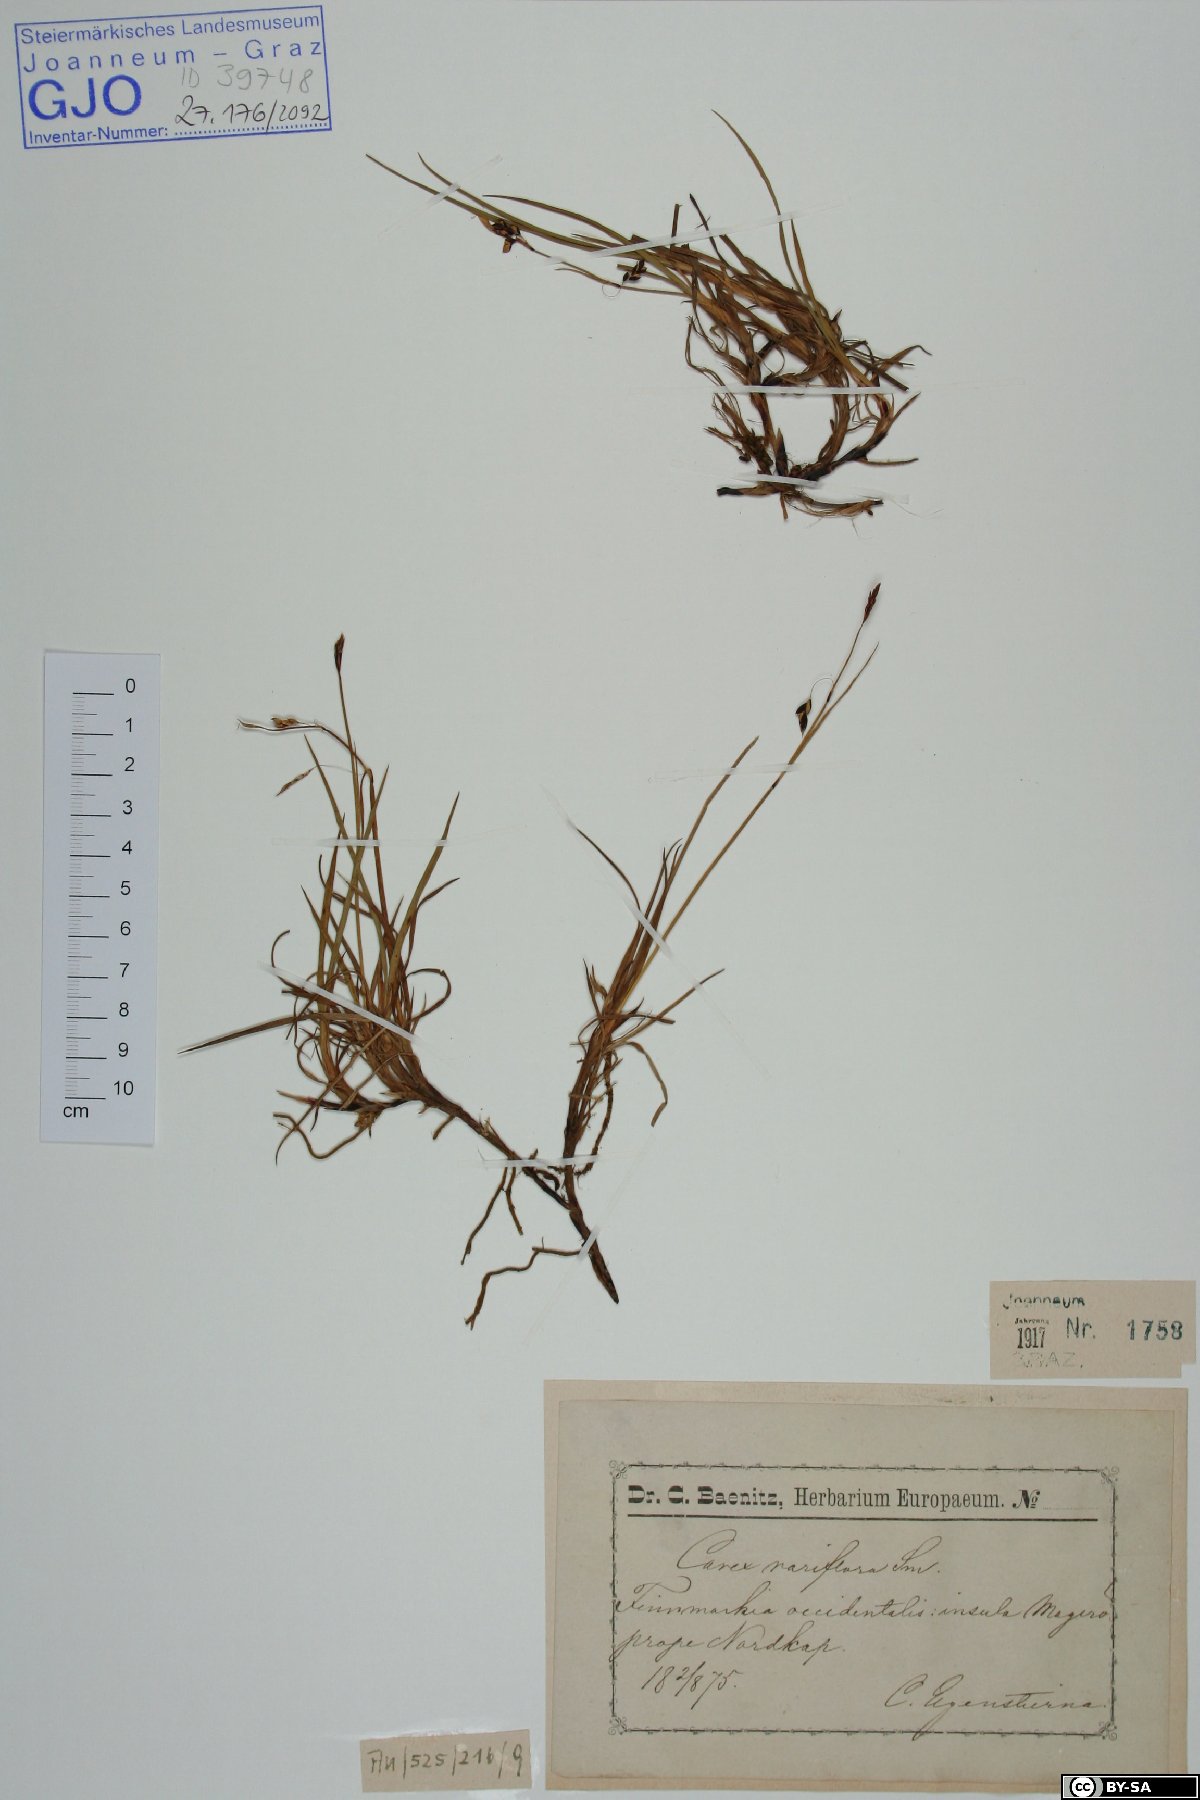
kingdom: Plantae
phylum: Tracheophyta
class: Liliopsida
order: Poales
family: Cyperaceae
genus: Carex
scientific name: Carex rariflora
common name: Loose-flowered alpine sedge
